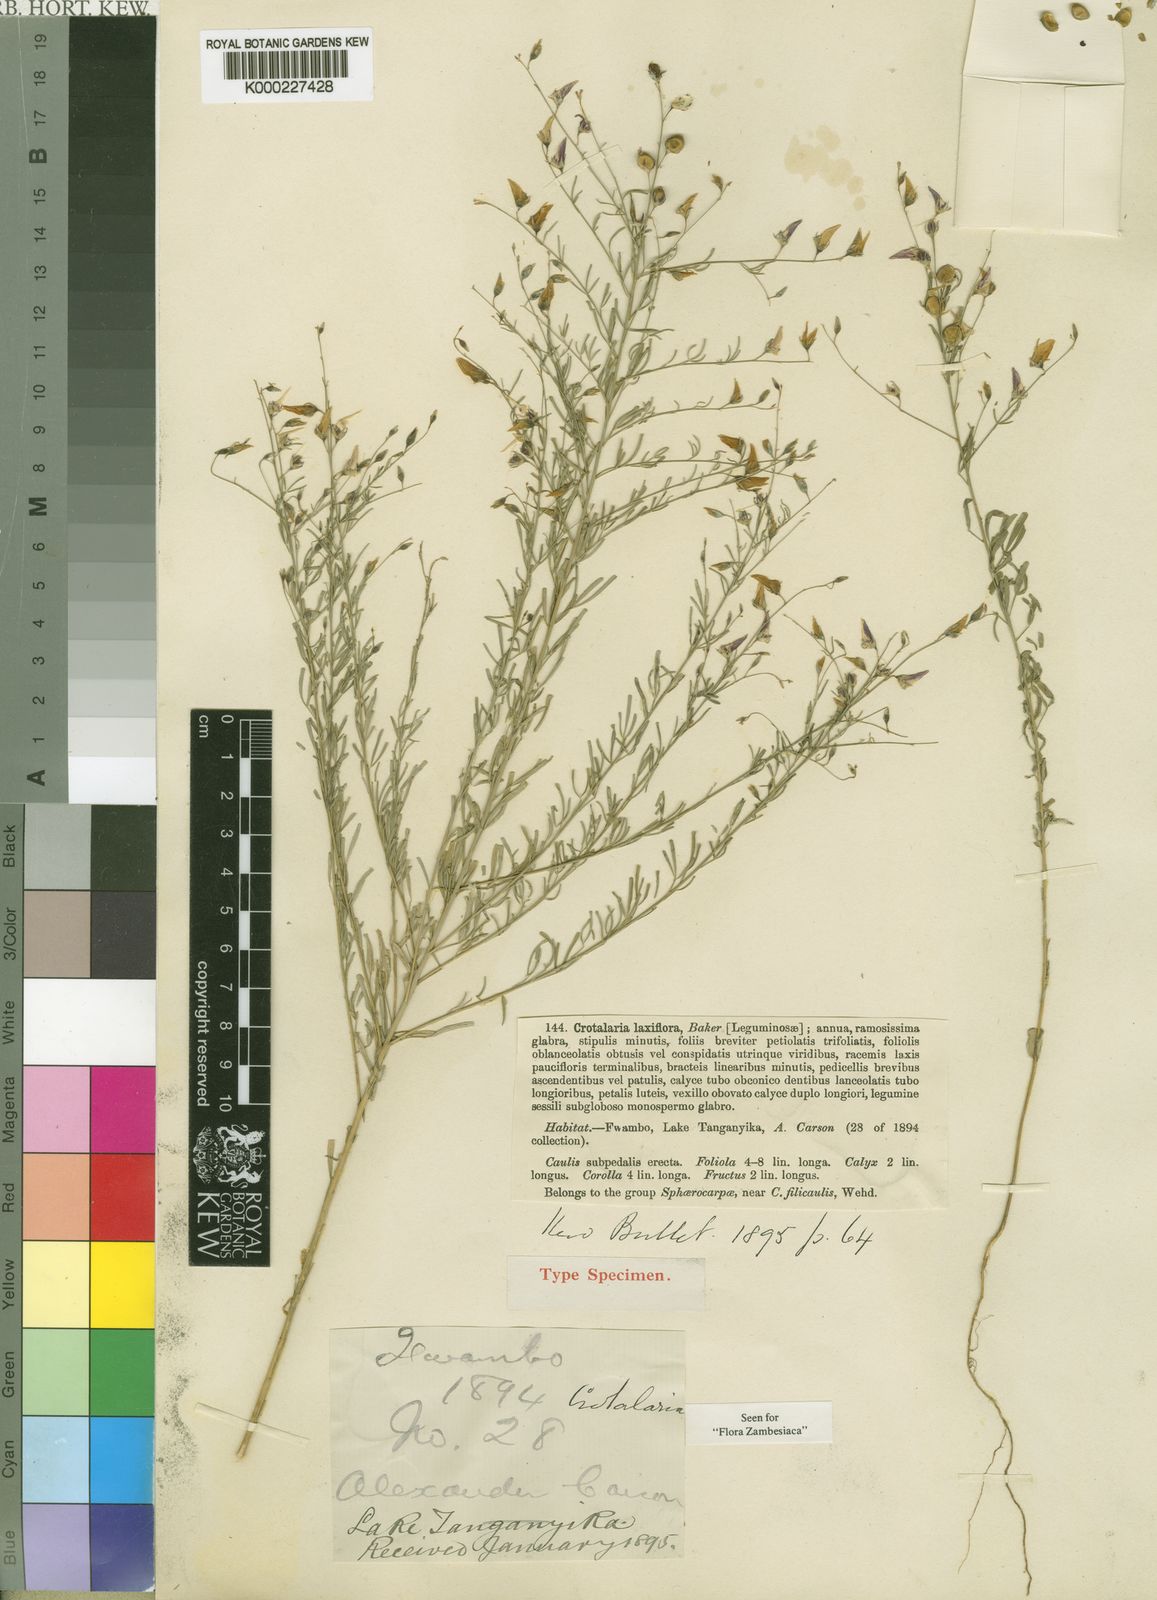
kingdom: Plantae
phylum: Tracheophyta
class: Magnoliopsida
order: Fabales
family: Fabaceae
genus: Crotalaria
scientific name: Crotalaria laxiflora
